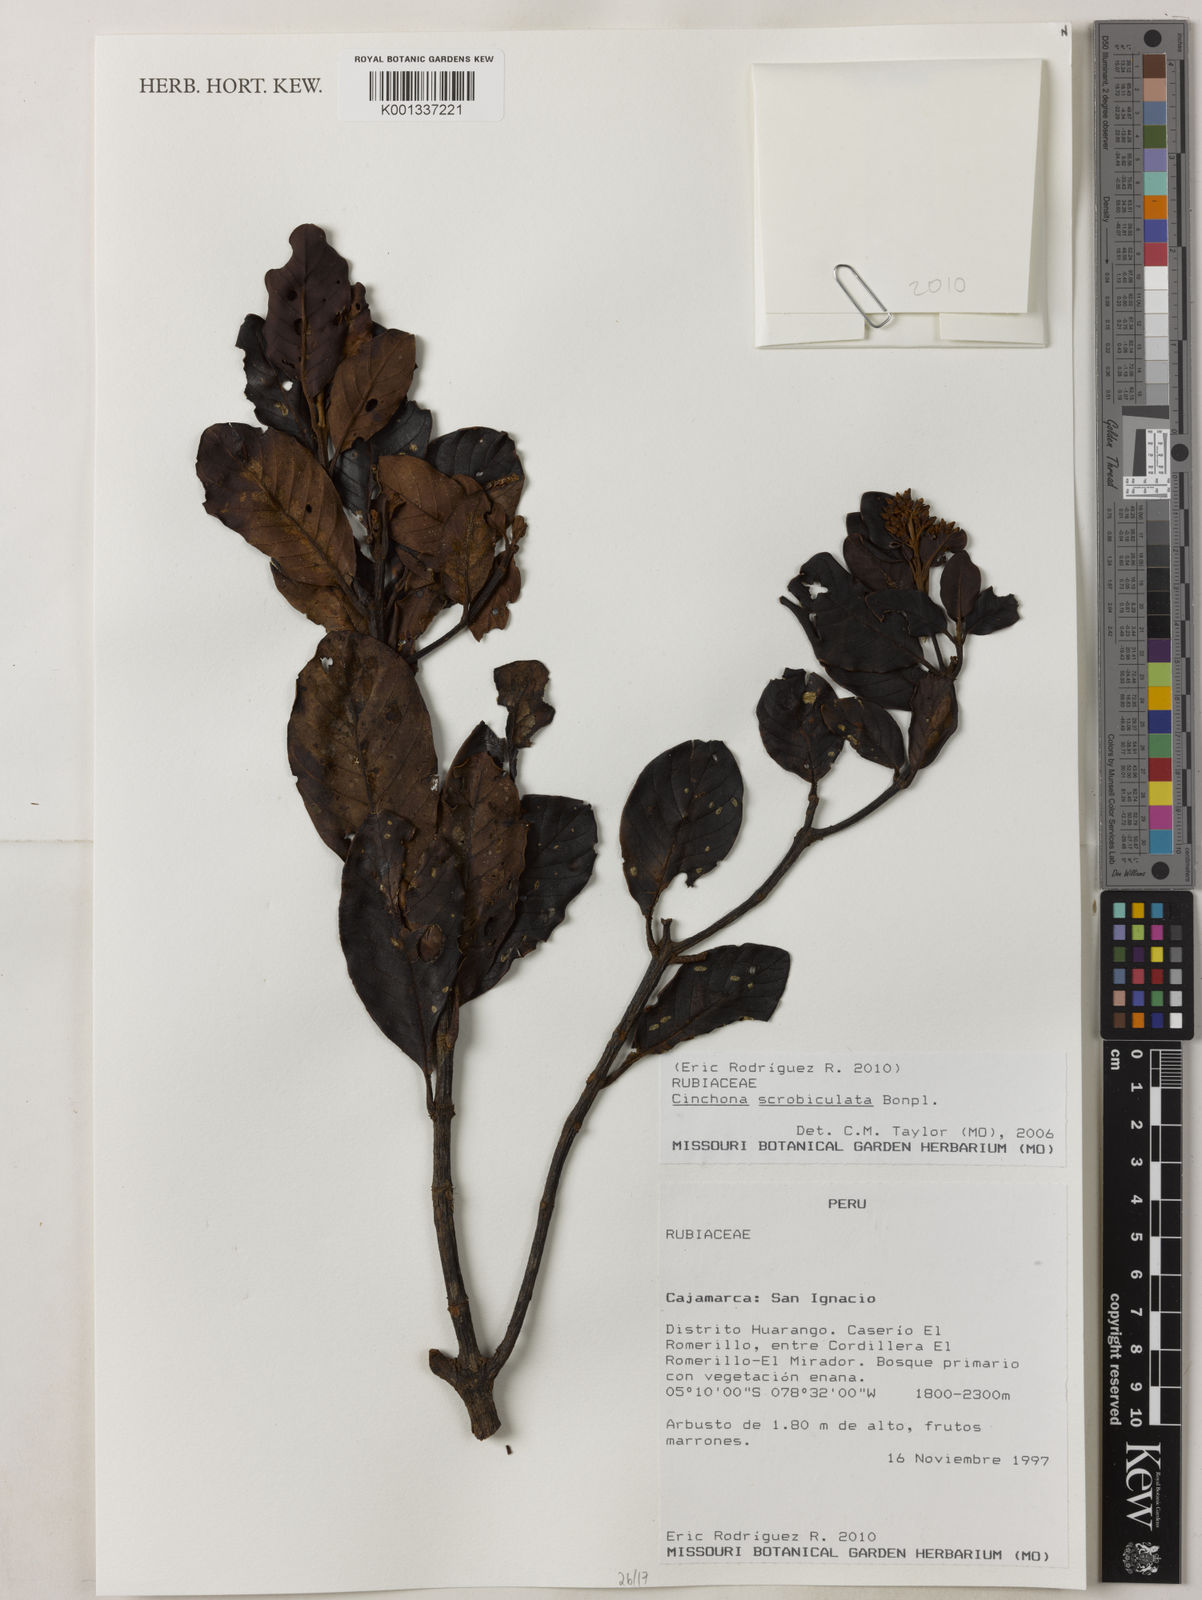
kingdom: Plantae
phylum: Tracheophyta
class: Magnoliopsida
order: Gentianales
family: Rubiaceae
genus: Cinchona
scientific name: Cinchona scrobiculata
